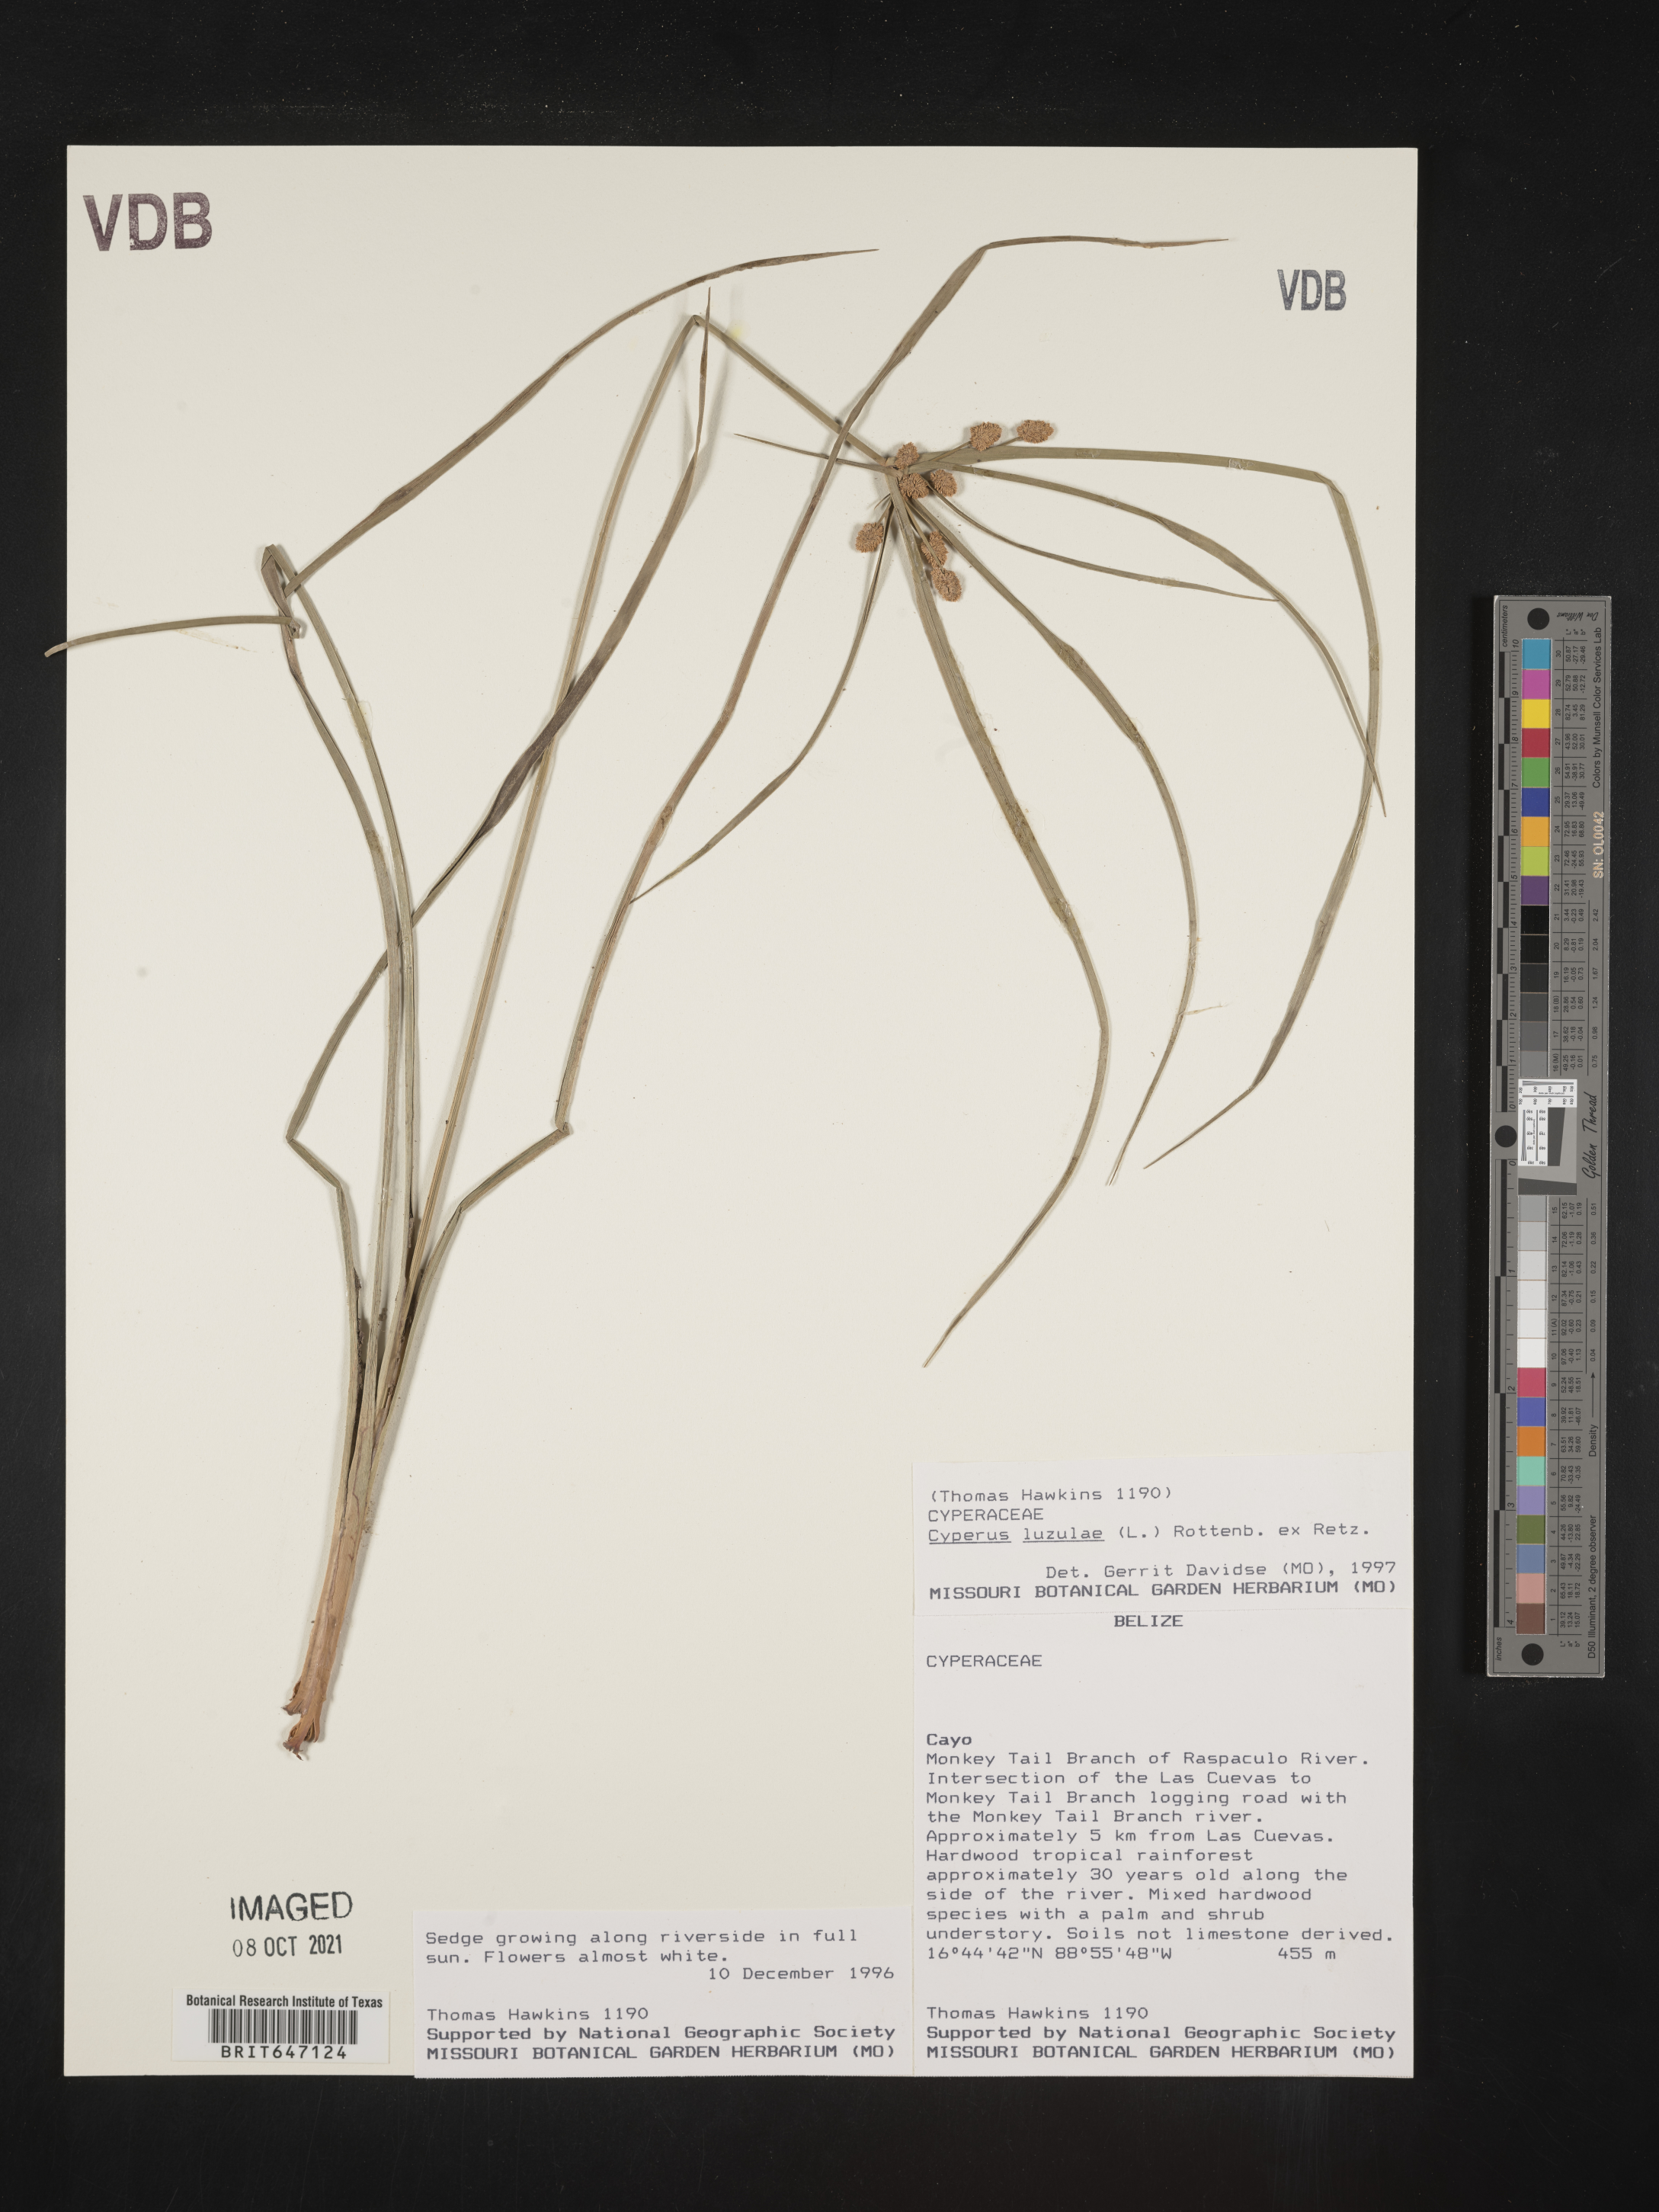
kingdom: Plantae
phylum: Tracheophyta
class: Liliopsida
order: Poales
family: Cyperaceae
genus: Cyperus
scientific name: Cyperus luzulae
